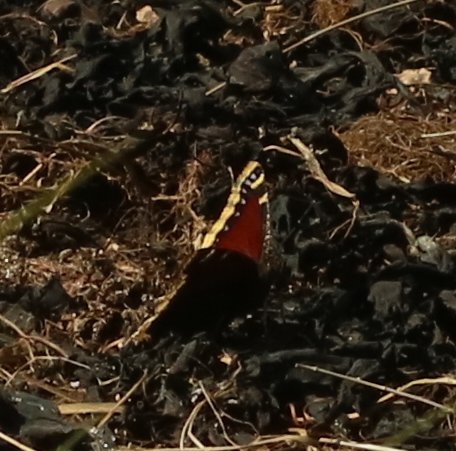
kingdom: Animalia
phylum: Arthropoda
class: Insecta
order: Lepidoptera
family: Nymphalidae
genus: Nymphalis
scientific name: Nymphalis antiopa
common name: Mourning Cloak
